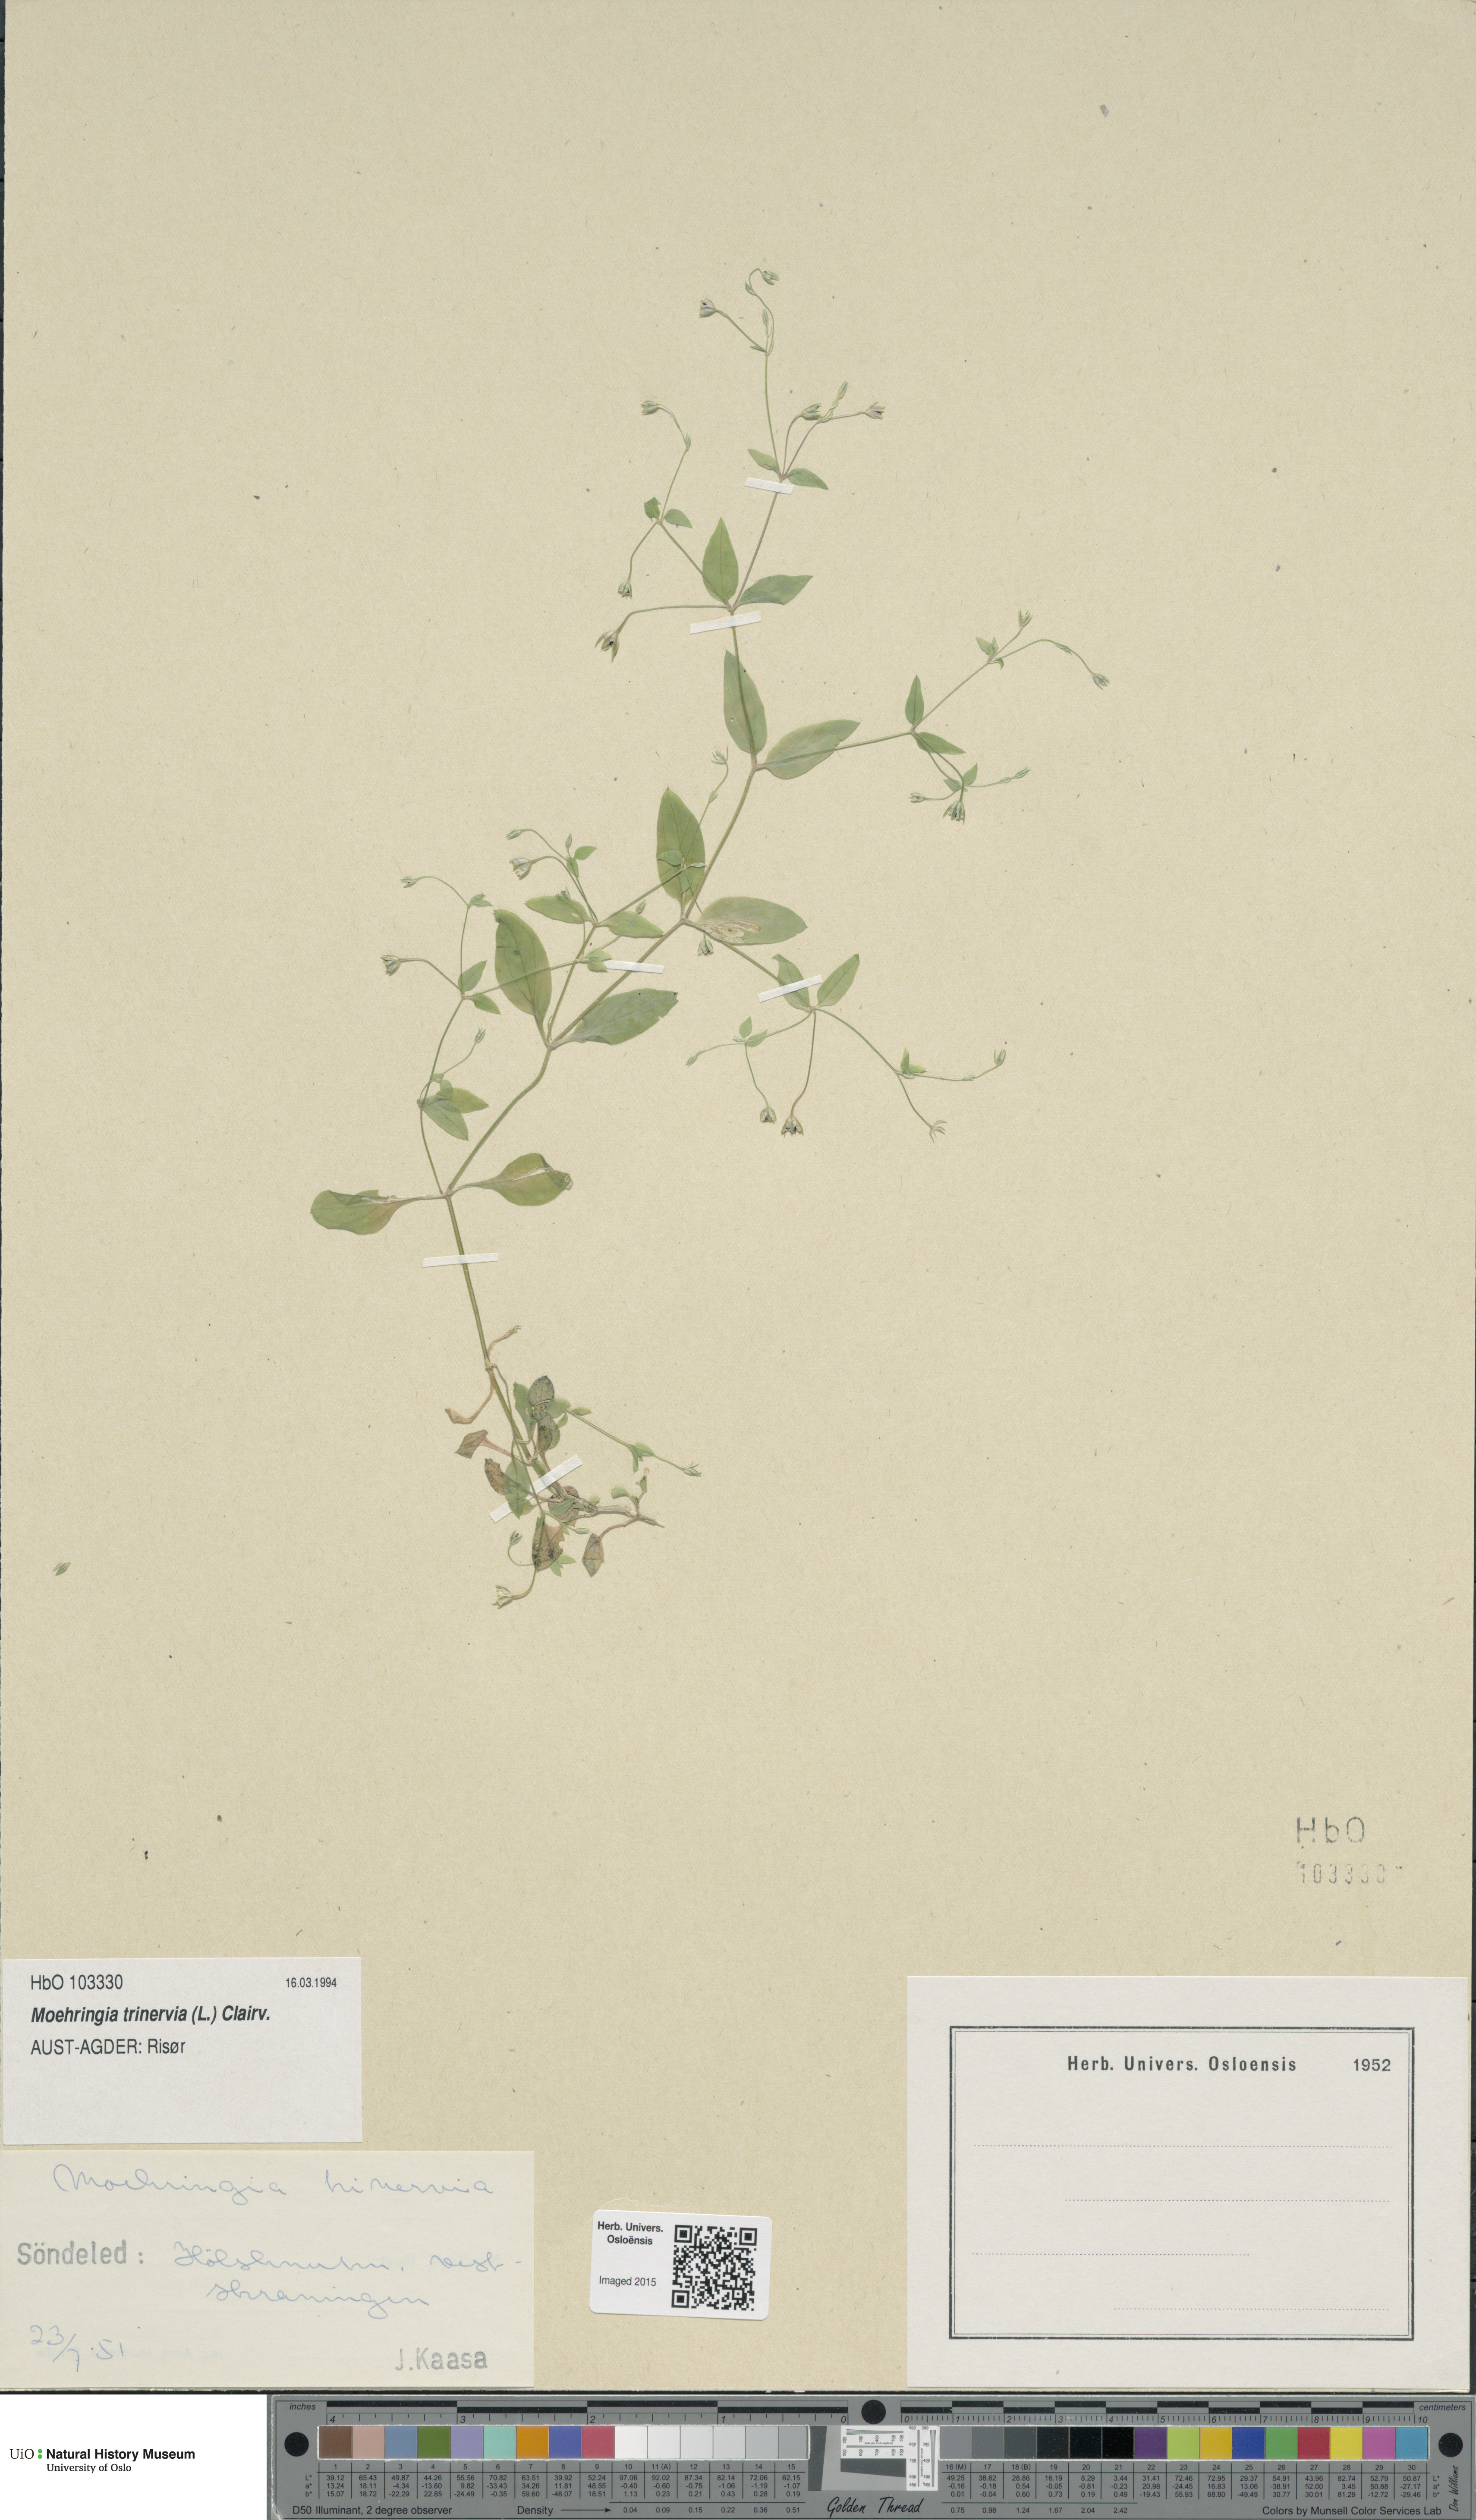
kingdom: Plantae
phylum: Tracheophyta
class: Magnoliopsida
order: Caryophyllales
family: Caryophyllaceae
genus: Moehringia
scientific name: Moehringia trinervia
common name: Three-nerved sandwort
